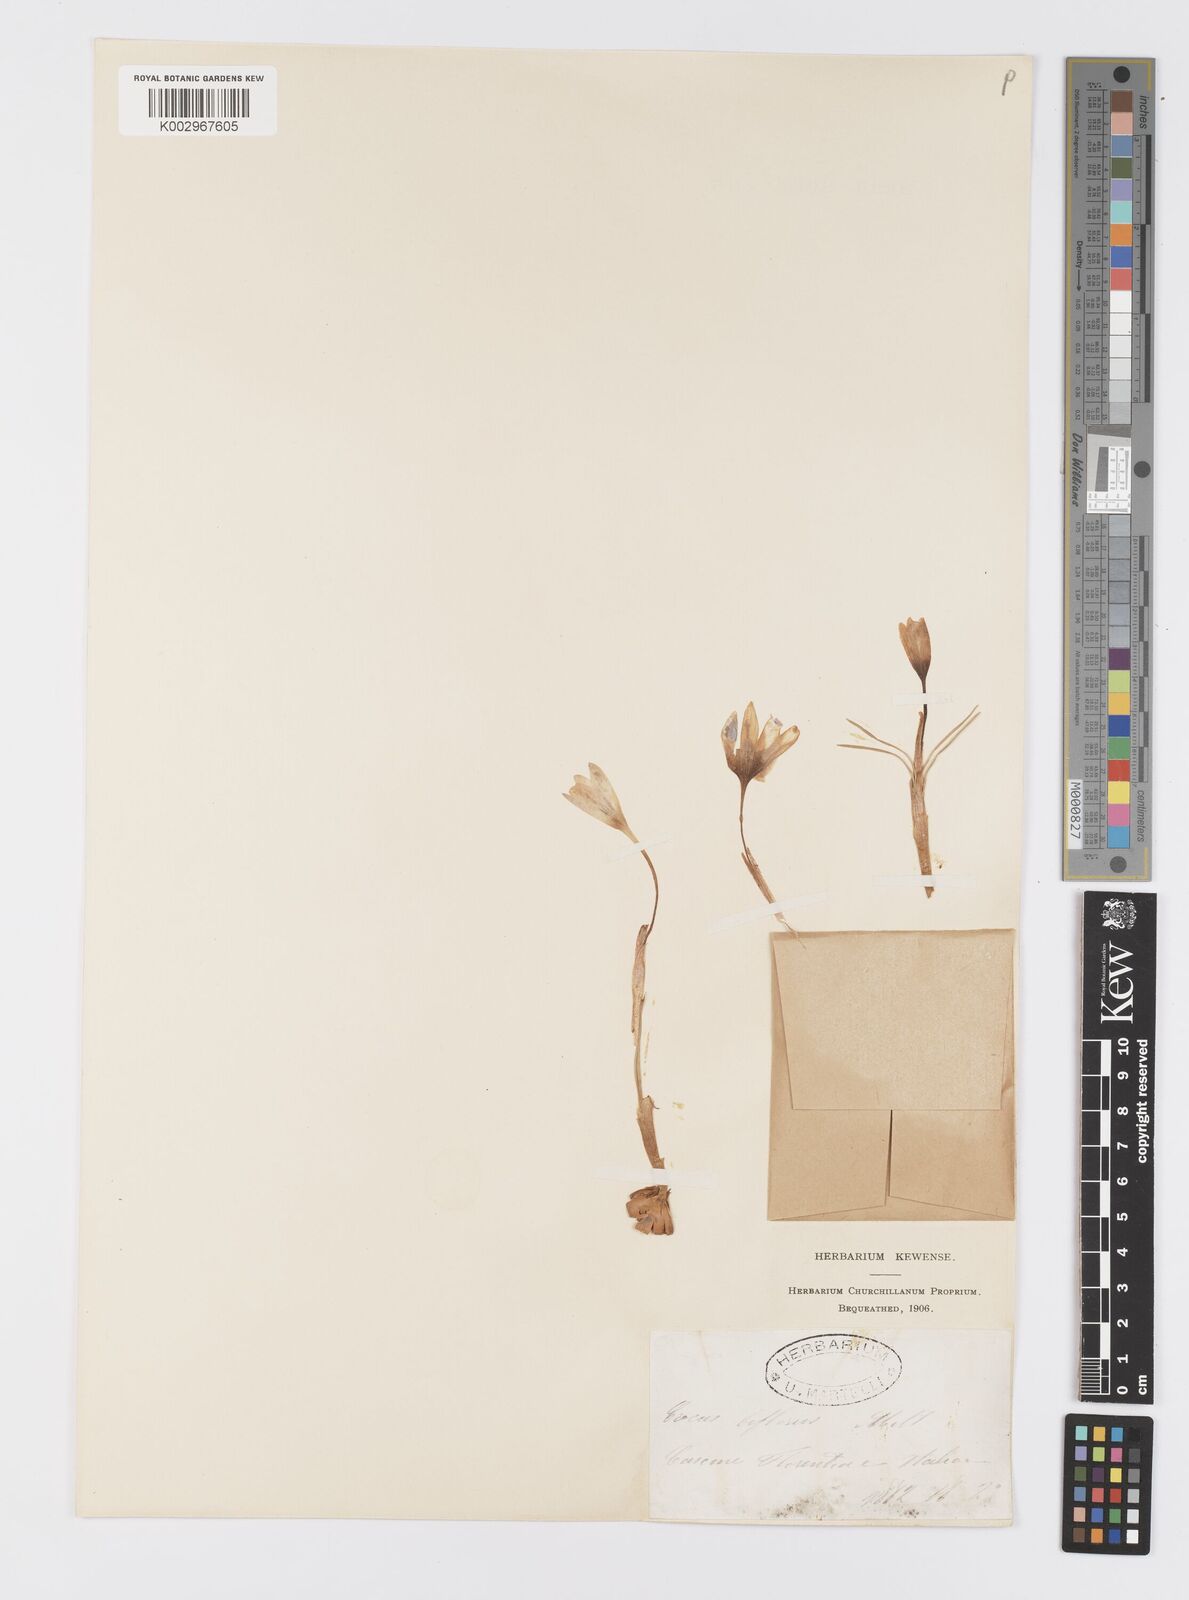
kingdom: Plantae
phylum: Tracheophyta
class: Liliopsida
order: Asparagales
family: Iridaceae
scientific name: Iridaceae
